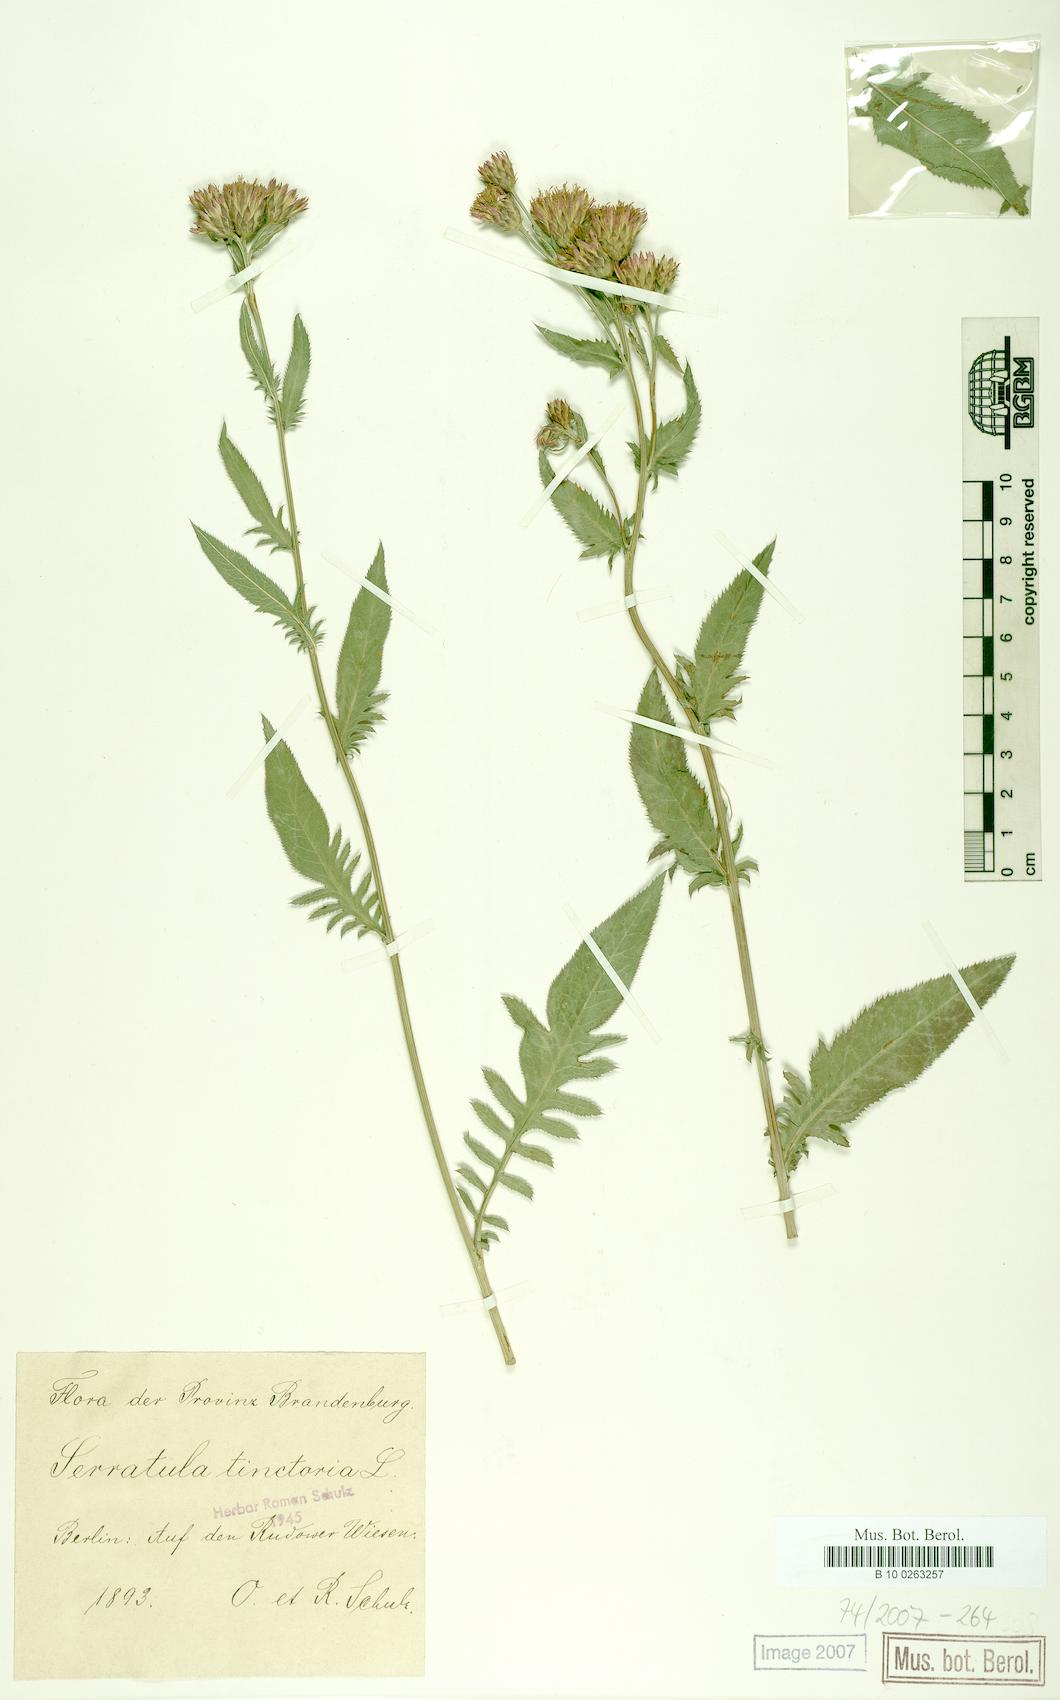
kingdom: Plantae
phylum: Tracheophyta
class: Magnoliopsida
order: Asterales
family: Asteraceae
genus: Serratula
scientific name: Serratula tinctoria
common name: Saw-wort
